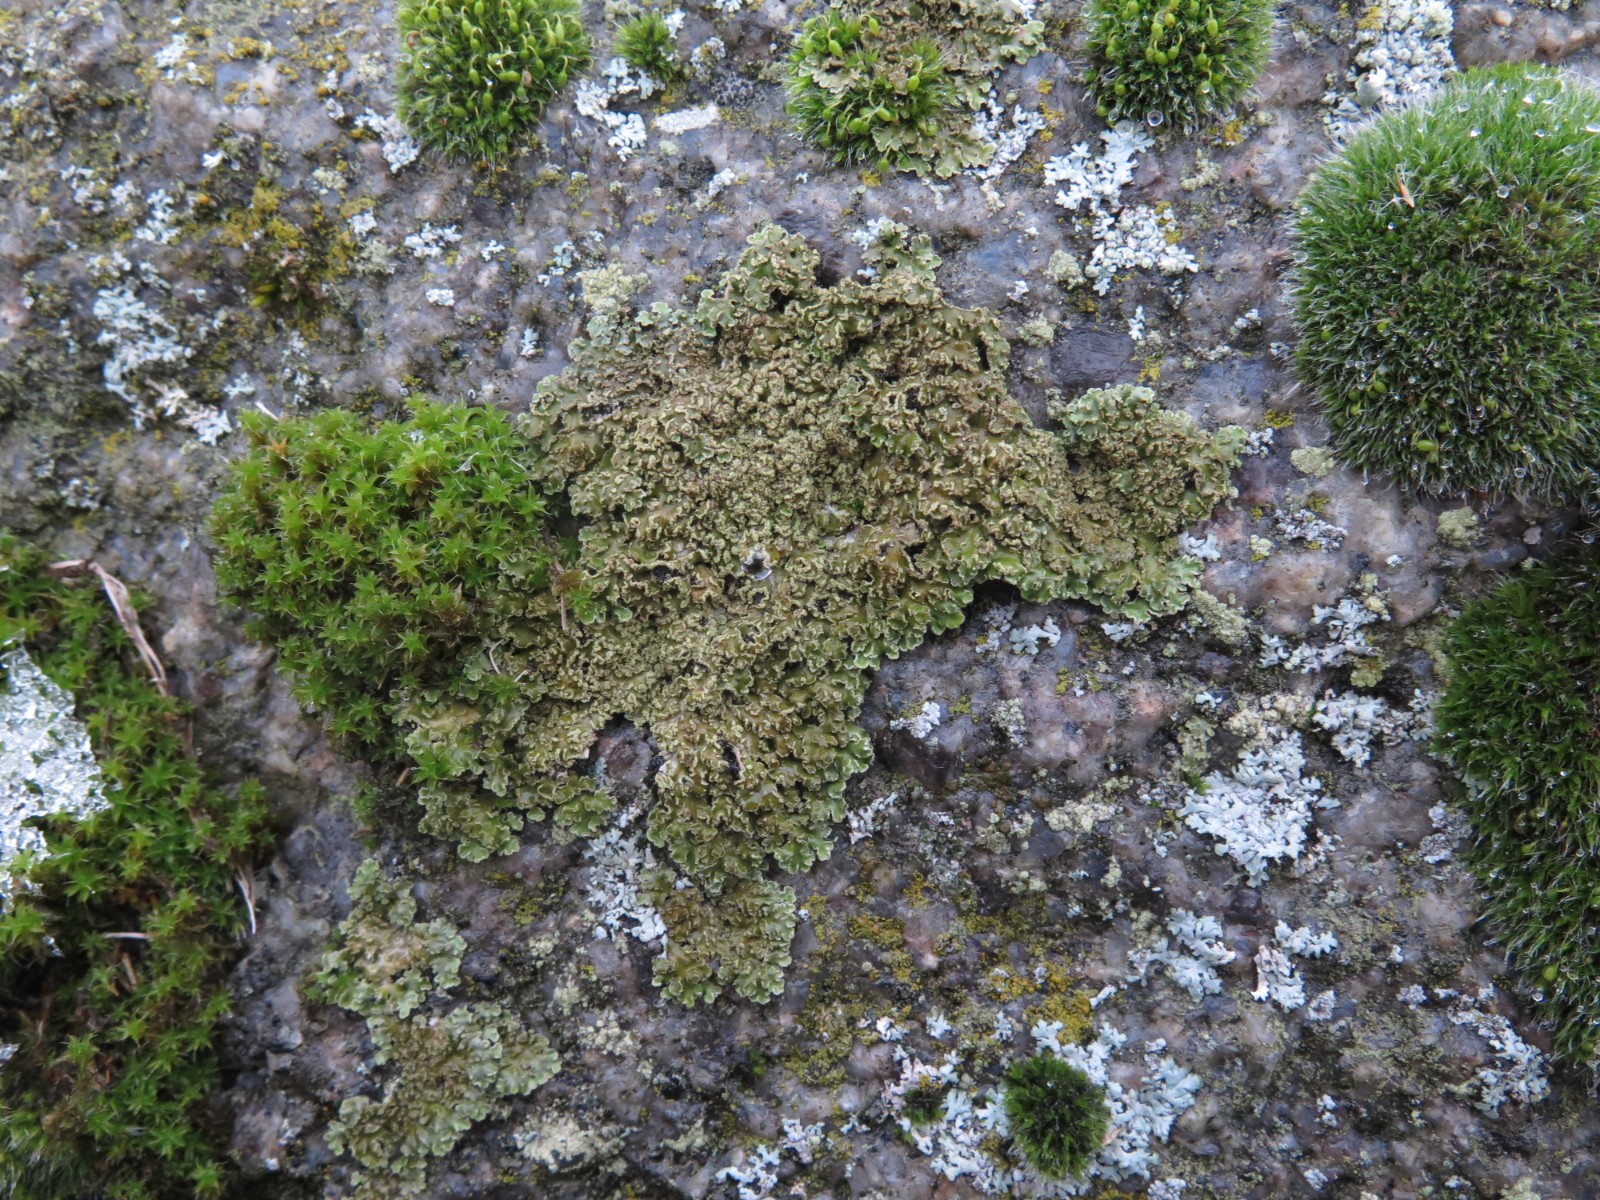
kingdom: Fungi
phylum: Ascomycota
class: Lecanoromycetes
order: Caliciales
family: Physciaceae
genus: Physconia
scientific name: Physconia perisidiosa
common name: liden dugrosetlav
